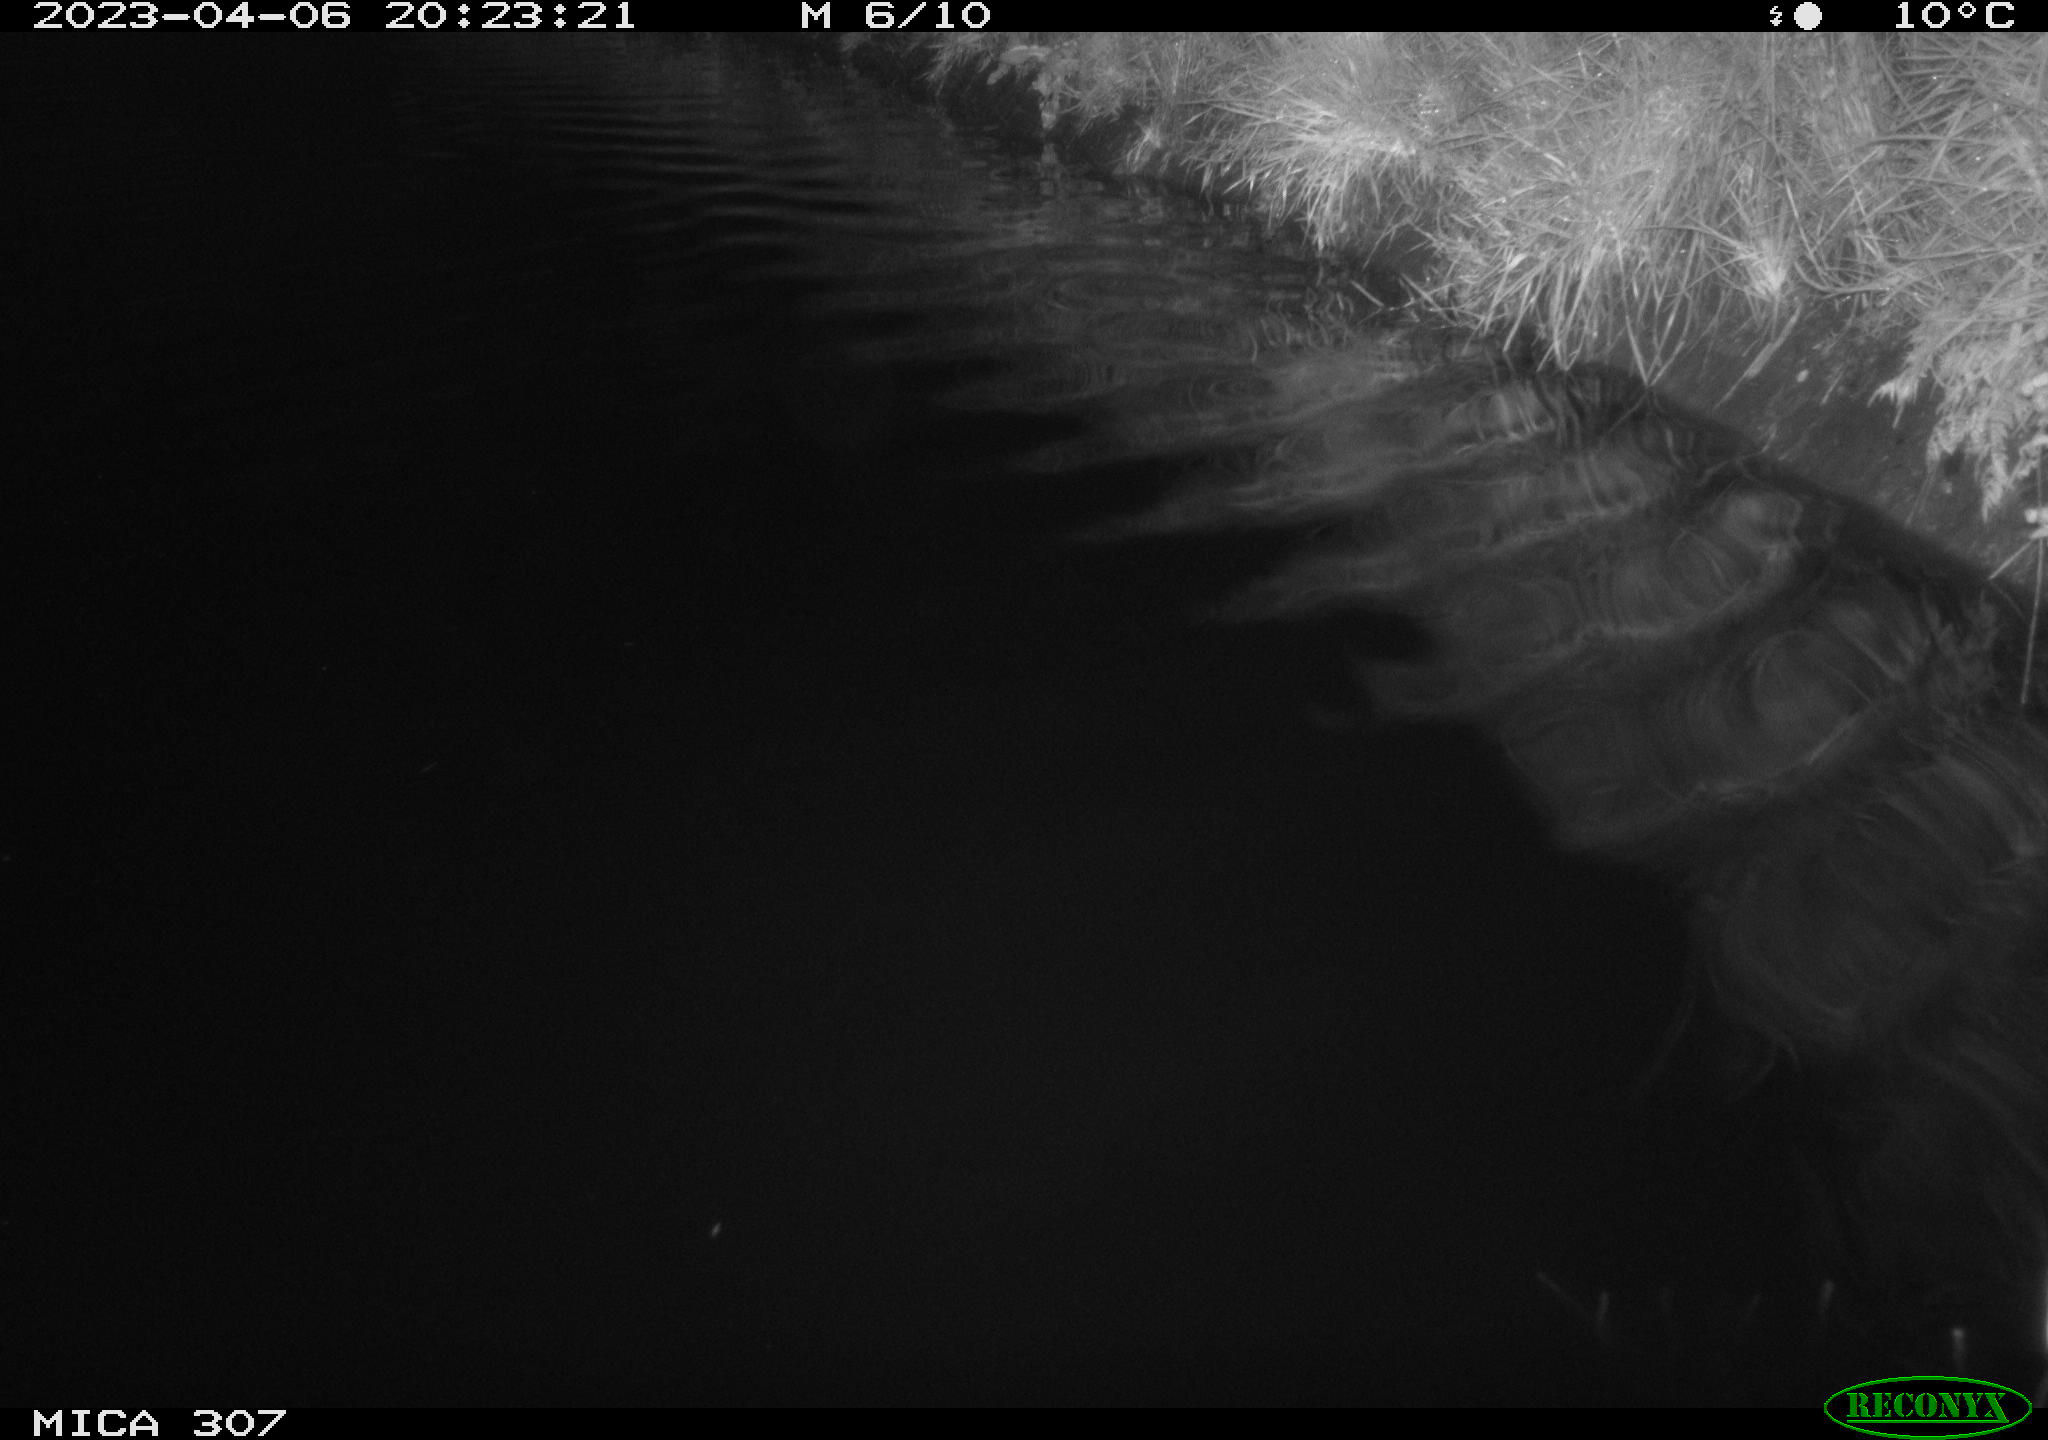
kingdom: Animalia
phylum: Chordata
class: Aves
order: Anseriformes
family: Anatidae
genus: Anas
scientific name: Anas
